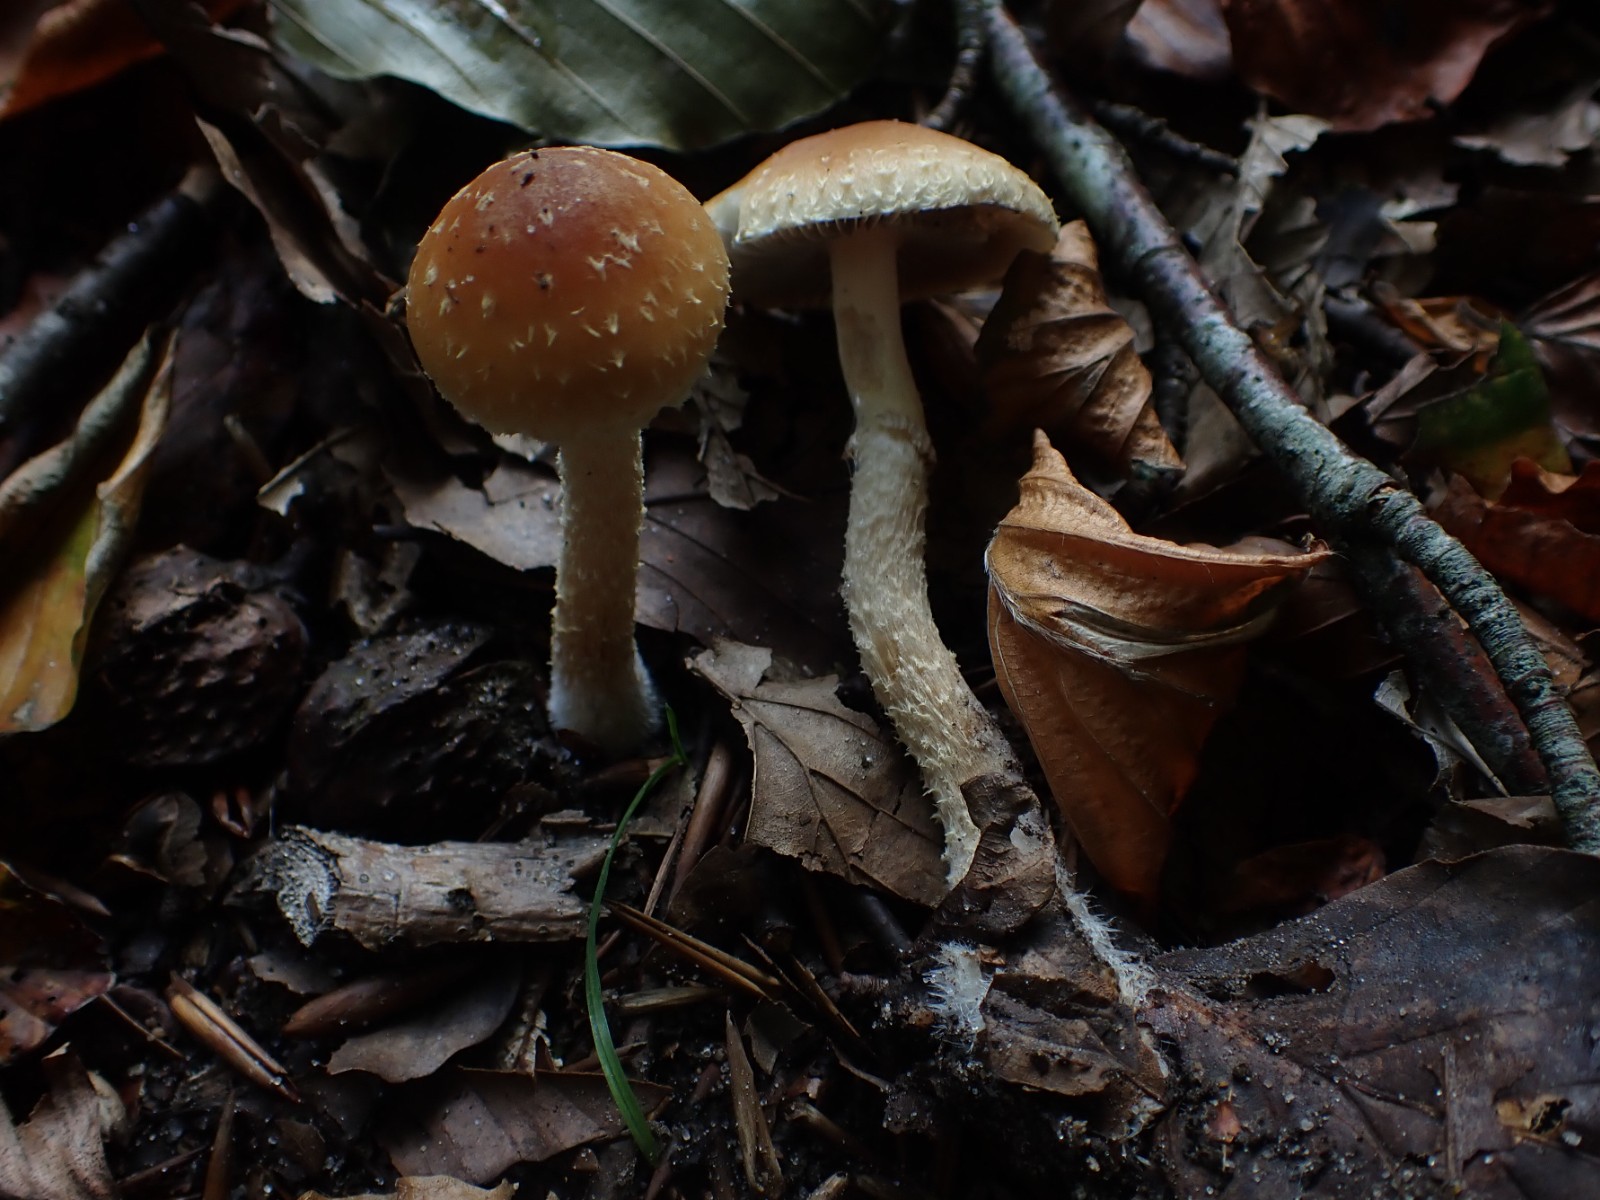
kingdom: Fungi
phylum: Basidiomycota
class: Agaricomycetes
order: Agaricales
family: Strophariaceae
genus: Leratiomyces
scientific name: Leratiomyces squamosus
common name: skællet bredblad
